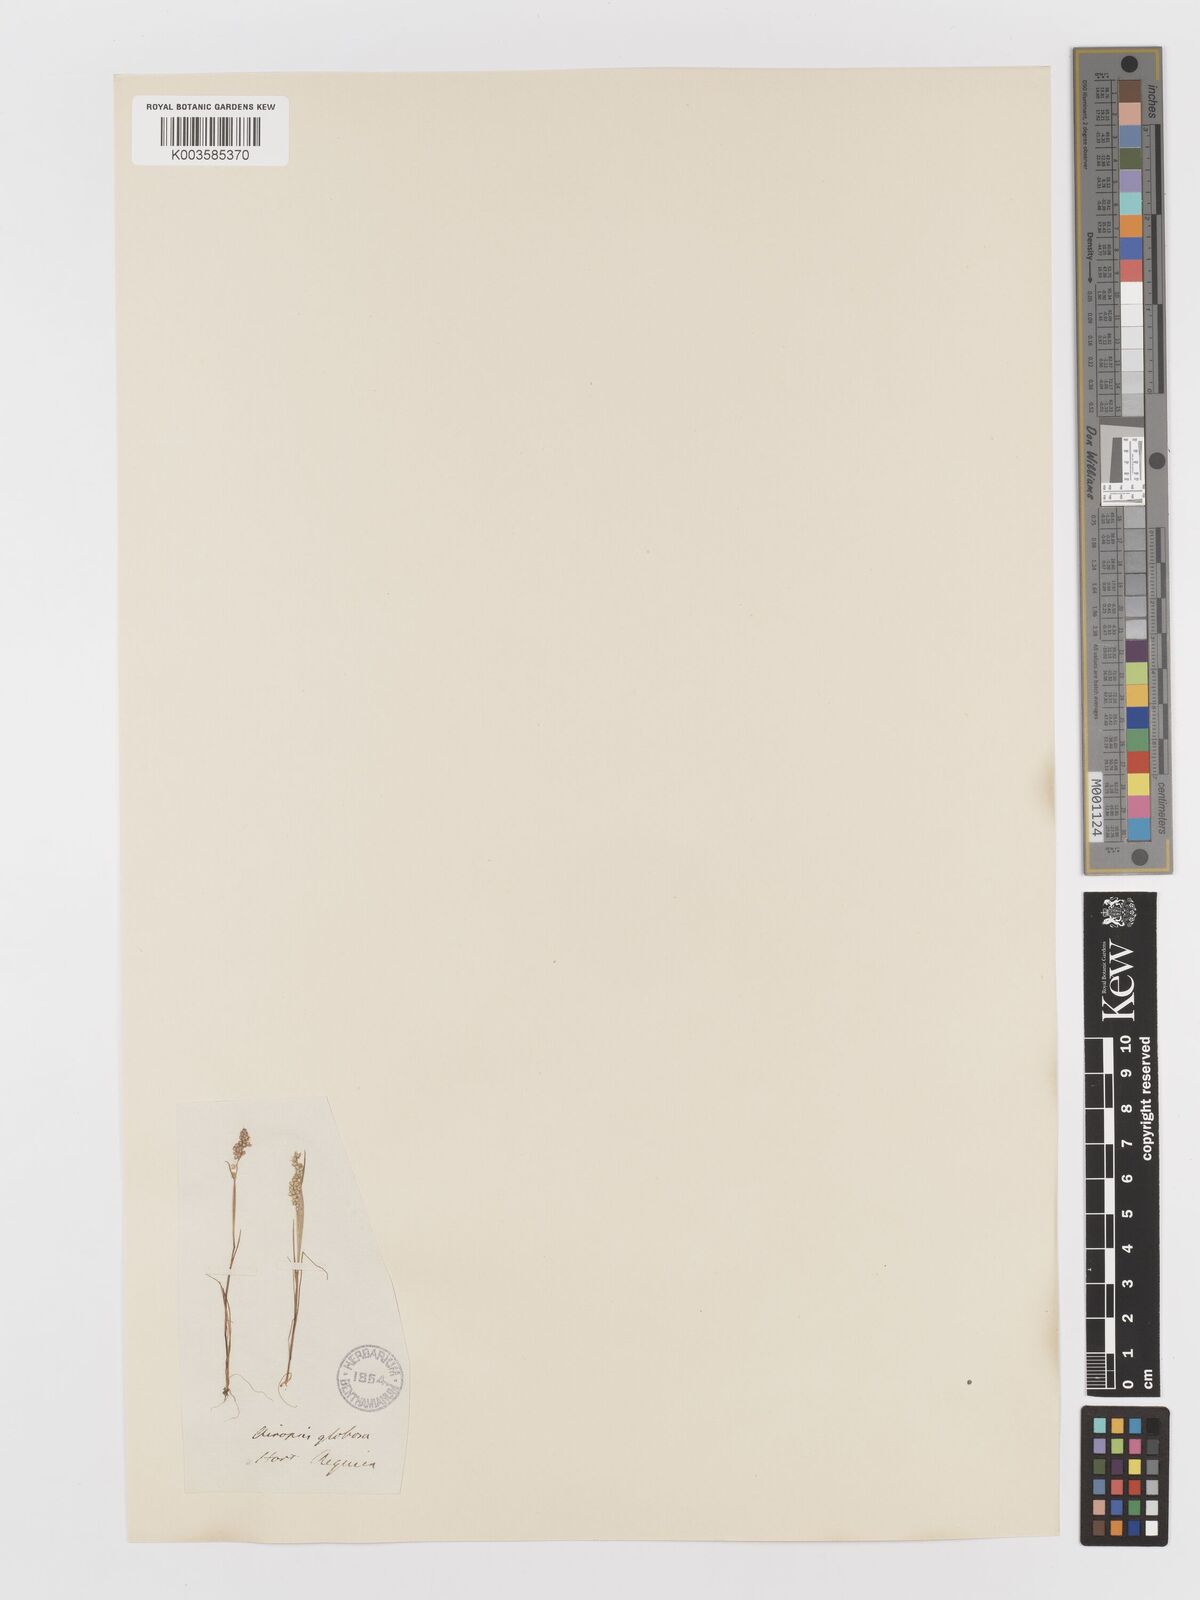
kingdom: Plantae
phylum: Tracheophyta
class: Liliopsida
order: Poales
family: Poaceae
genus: Airopsis
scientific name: Airopsis tenella
